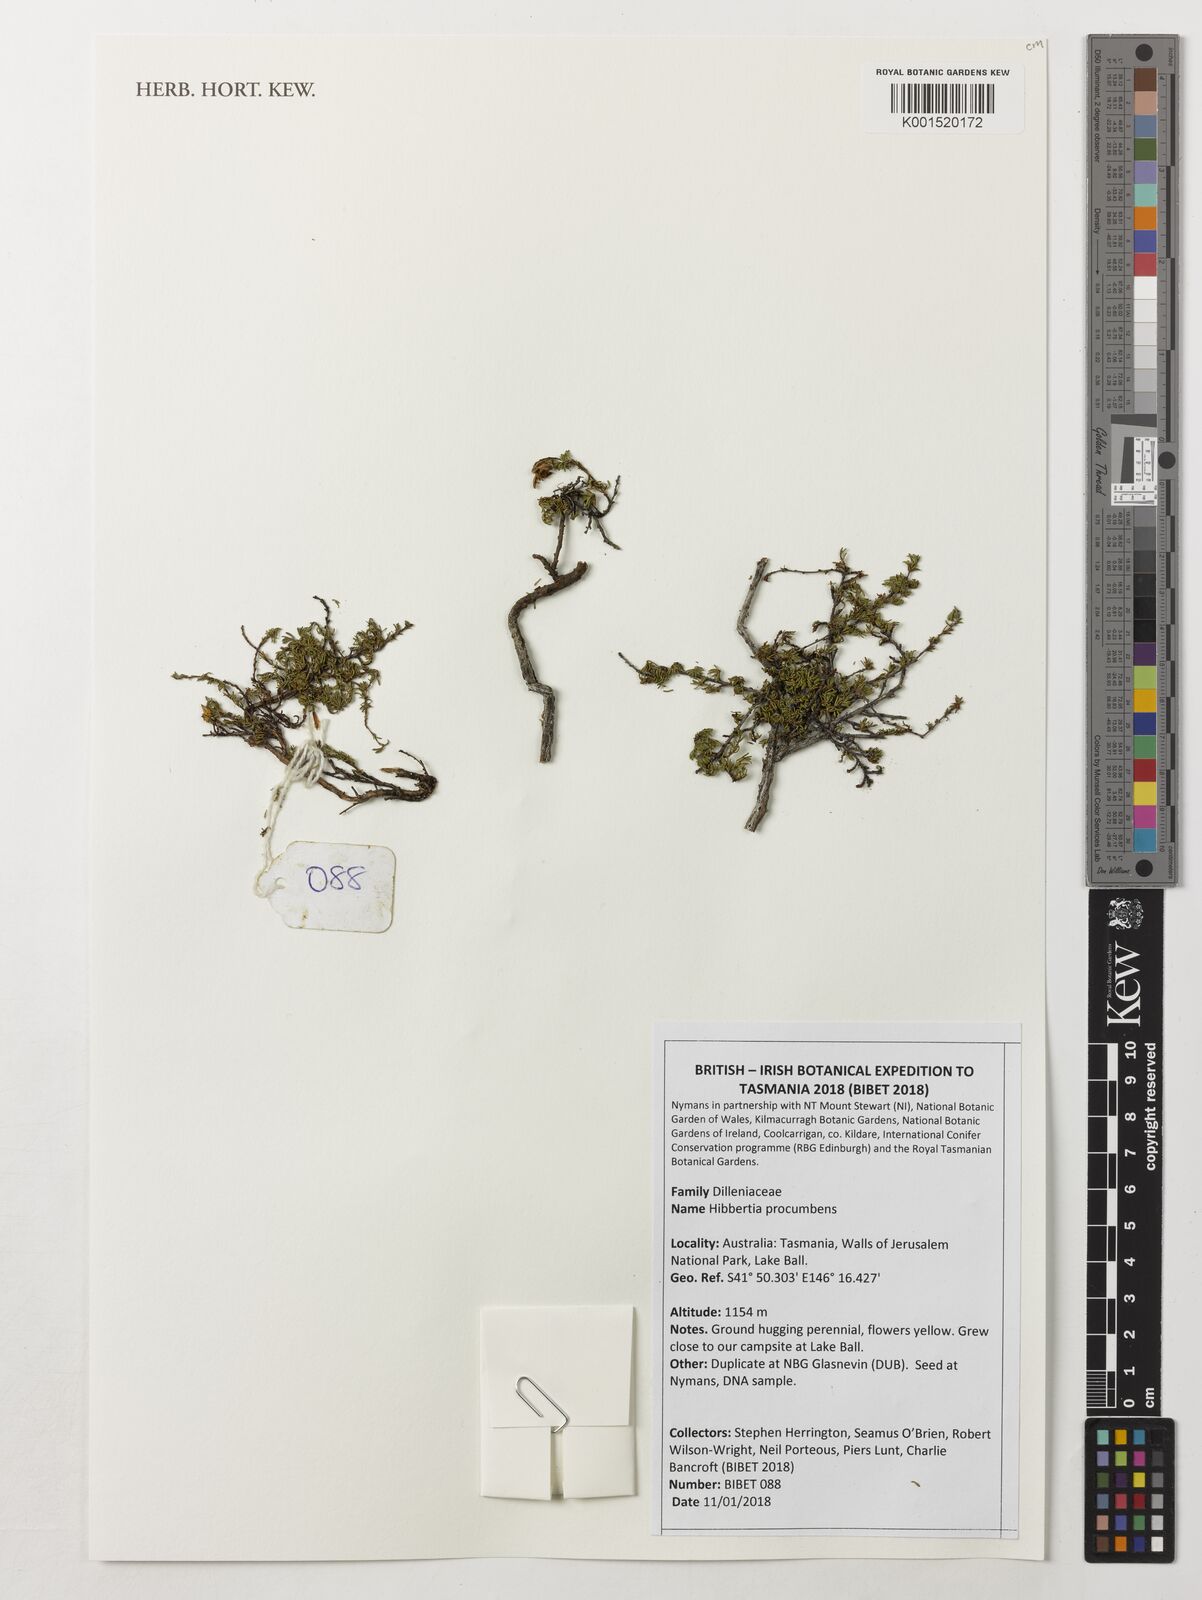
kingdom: Plantae
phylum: Tracheophyta
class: Magnoliopsida
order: Dilleniales
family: Dilleniaceae
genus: Hibbertia
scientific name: Hibbertia procumbens
